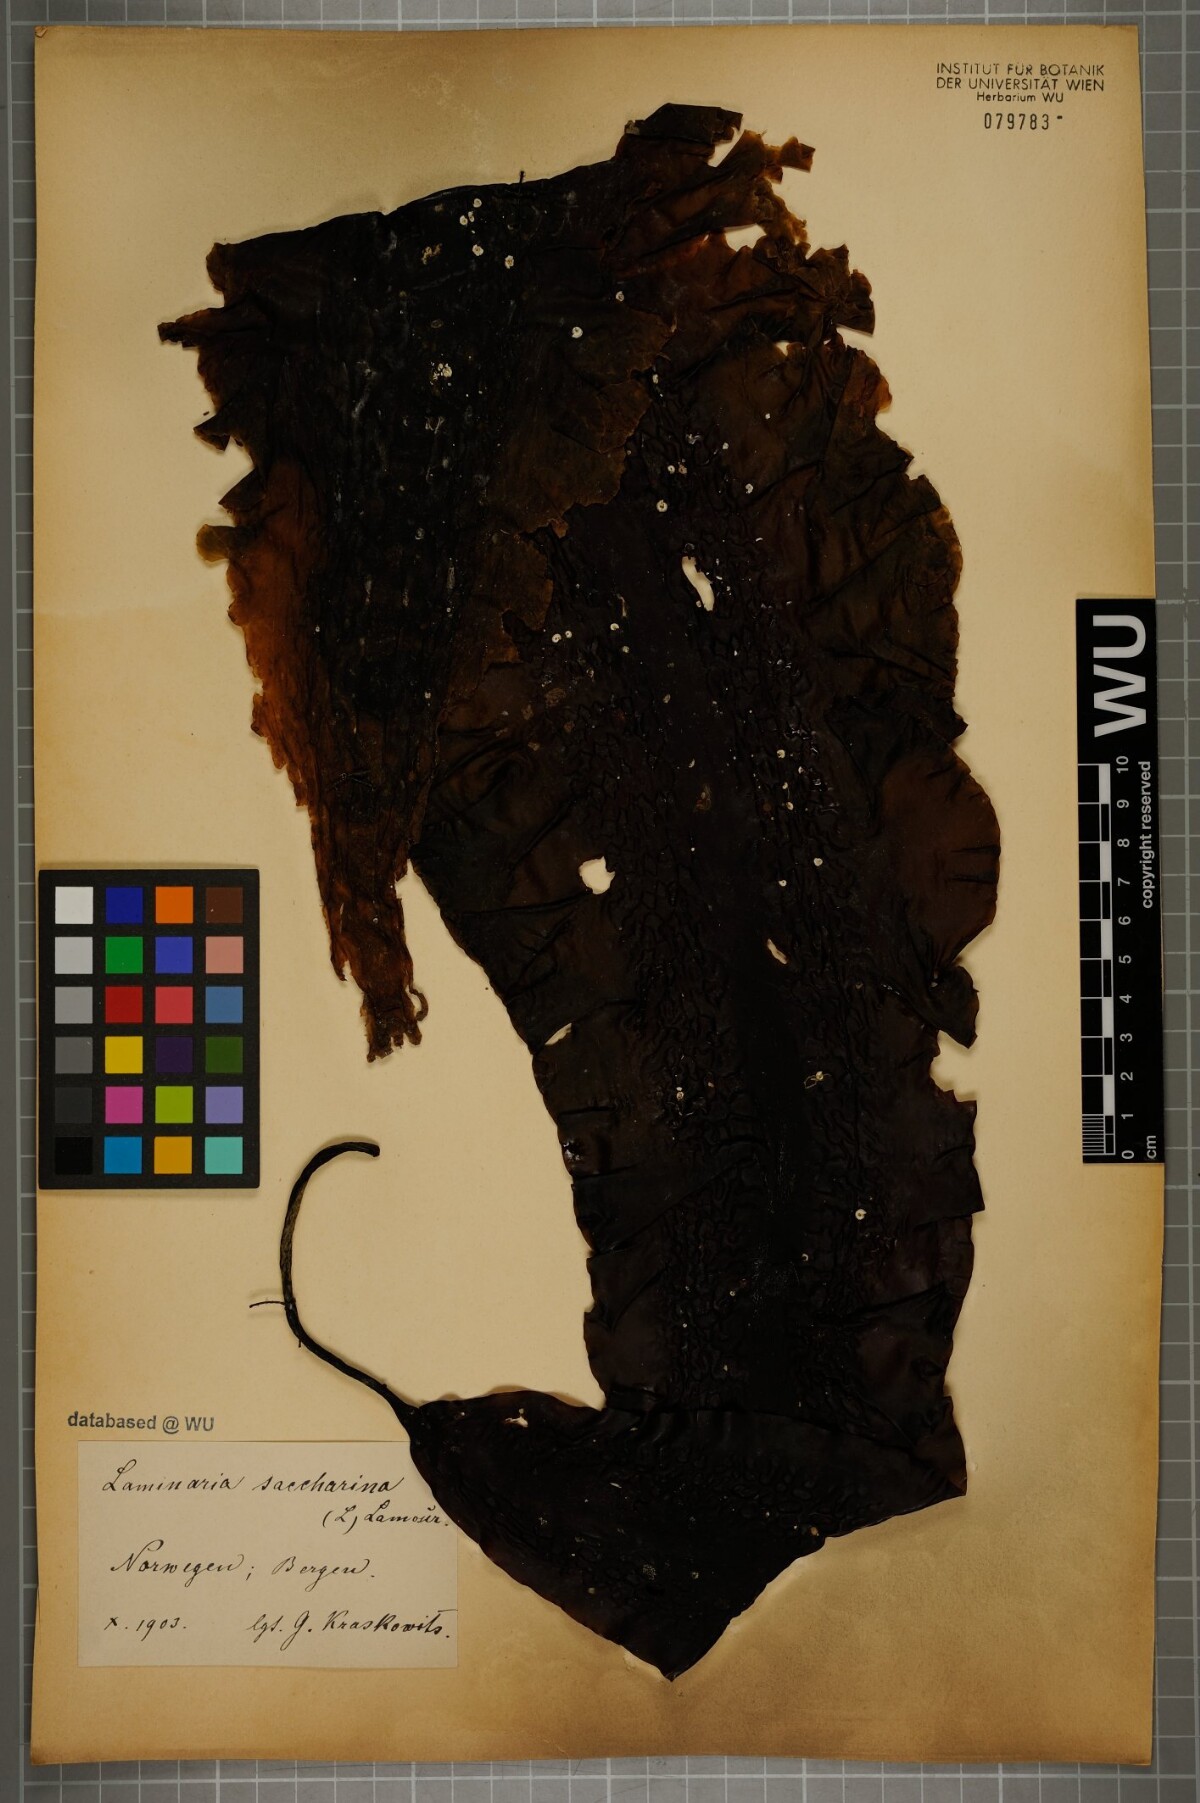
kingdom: Chromista
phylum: Ochrophyta
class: Phaeophyceae
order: Laminariales
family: Laminariaceae
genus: Saccharina
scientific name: Saccharina latissima
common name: Poor man's weather glass
